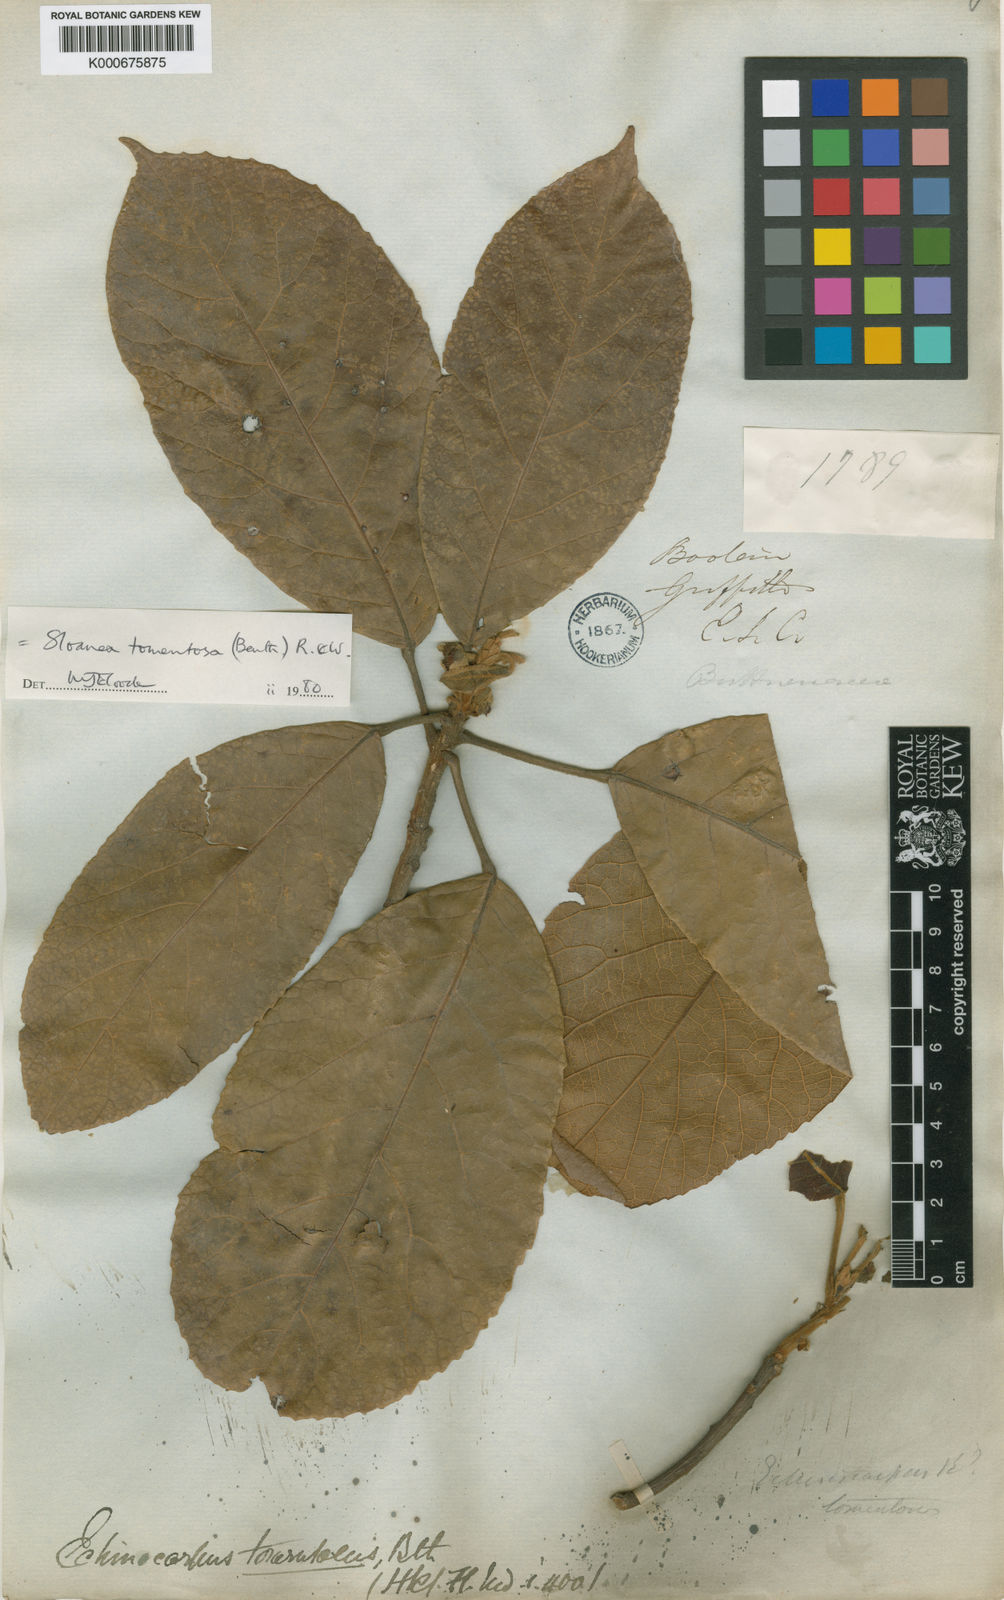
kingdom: Plantae
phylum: Tracheophyta
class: Magnoliopsida
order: Oxalidales
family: Elaeocarpaceae
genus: Sloanea
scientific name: Sloanea tomentosa
